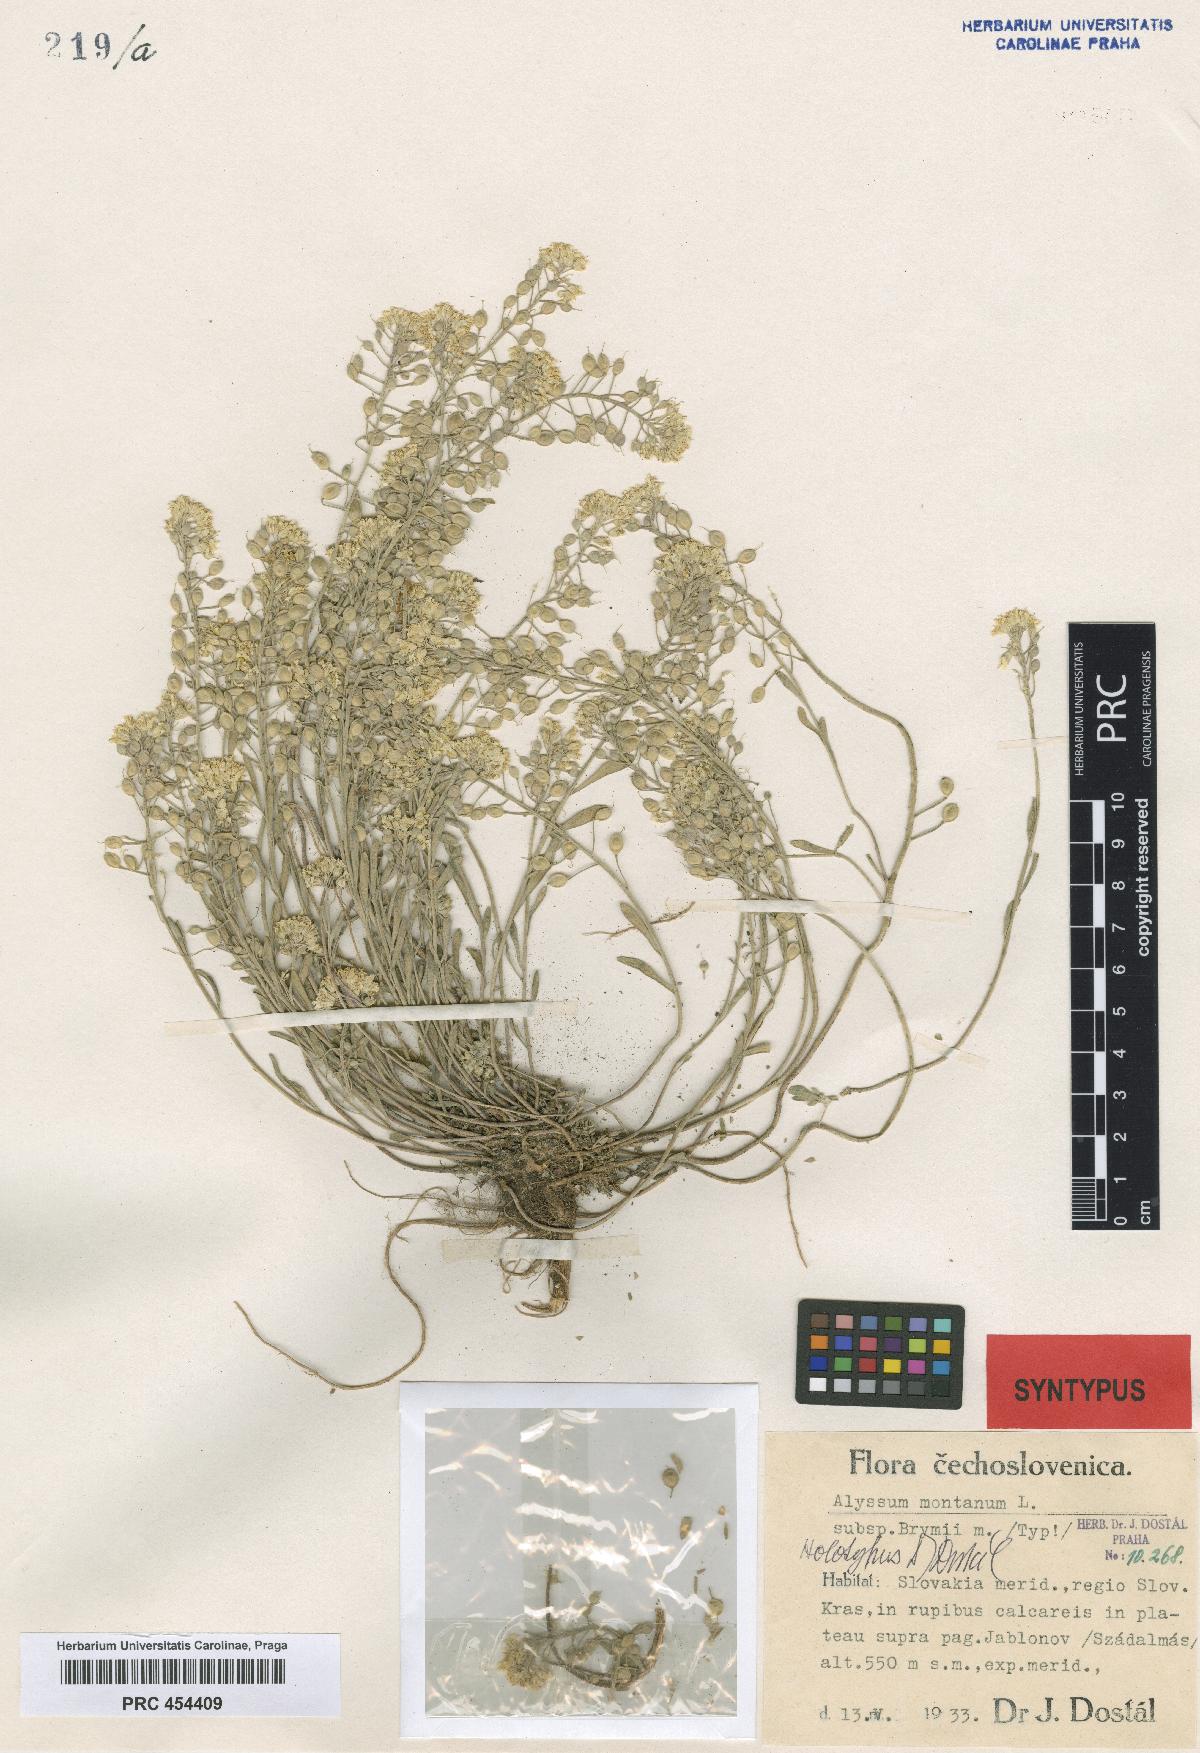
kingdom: Plantae
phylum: Tracheophyta
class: Magnoliopsida
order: Brassicales
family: Brassicaceae
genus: Alyssum
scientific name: Alyssum gmelinii
